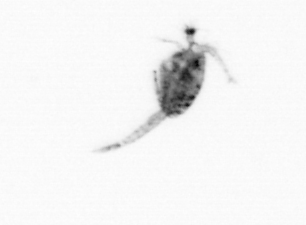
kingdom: Animalia
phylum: Arthropoda
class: Copepoda
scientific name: Copepoda
